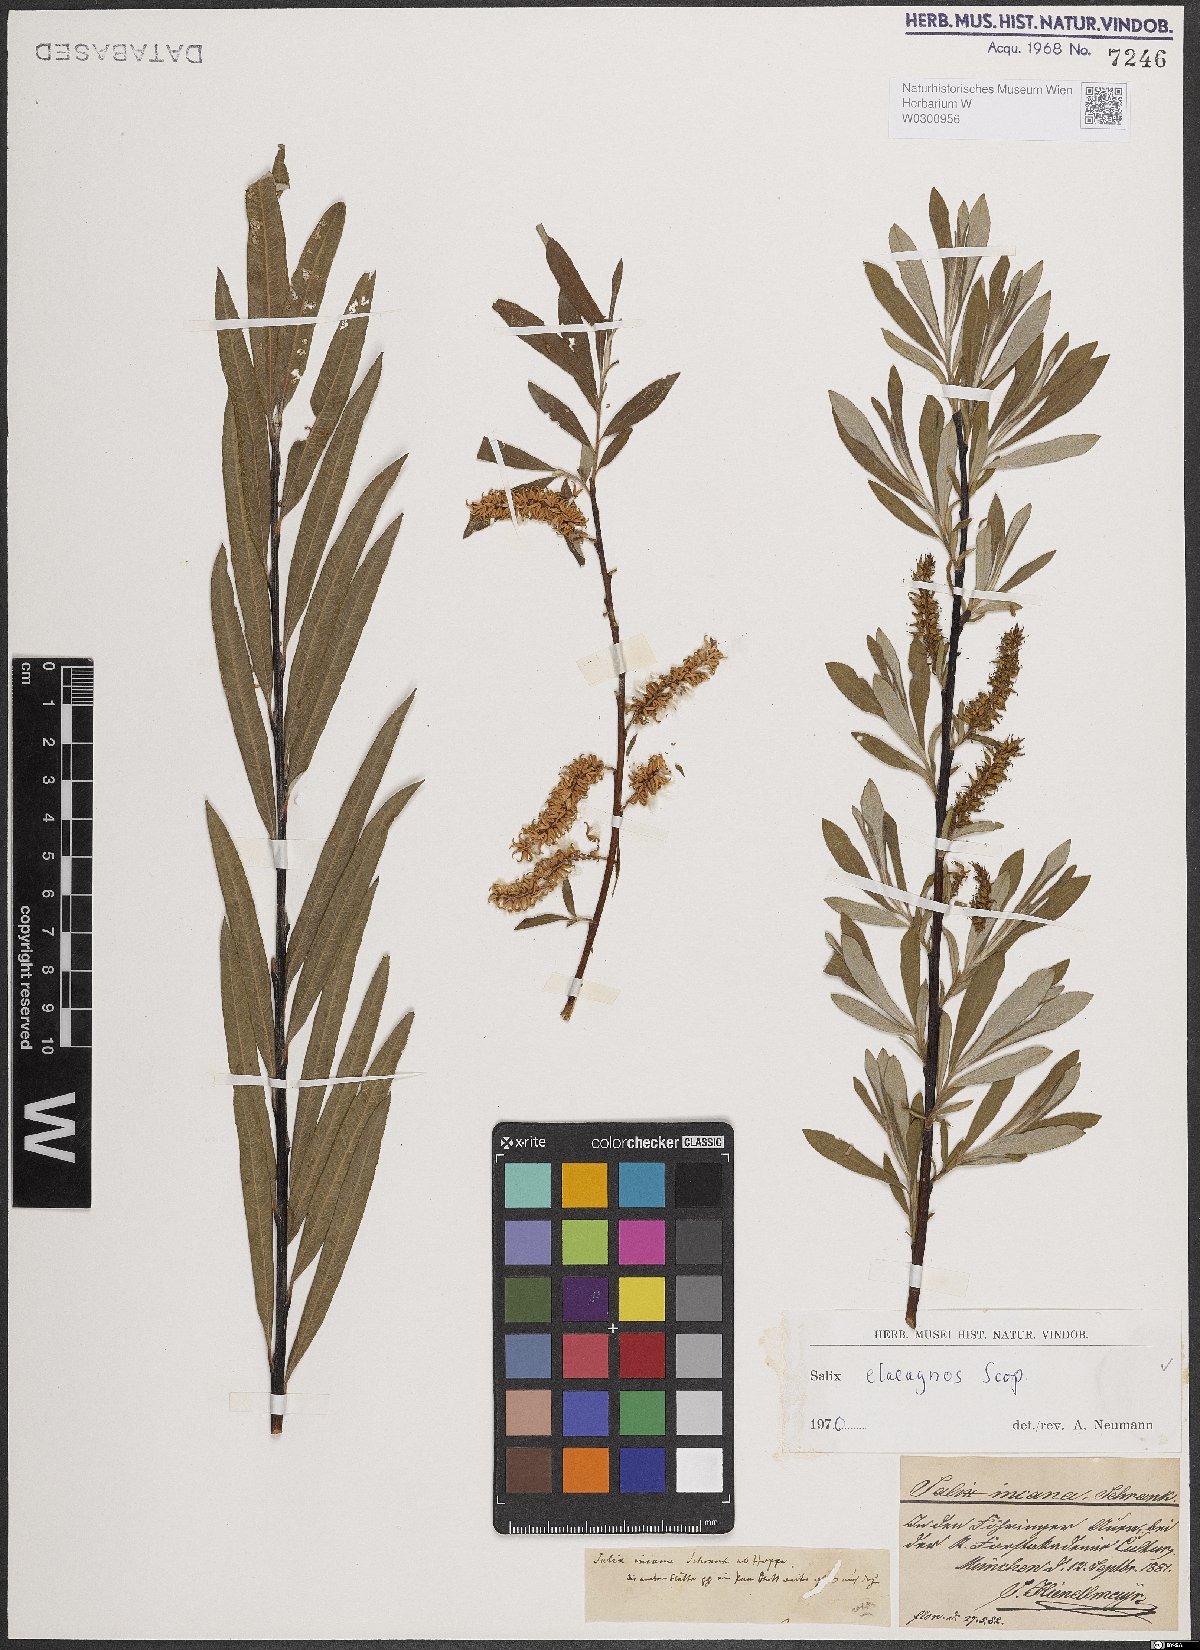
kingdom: Plantae
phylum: Tracheophyta
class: Magnoliopsida
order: Malpighiales
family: Salicaceae
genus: Salix
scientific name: Salix eleagnos
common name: Elaeagnus willow
